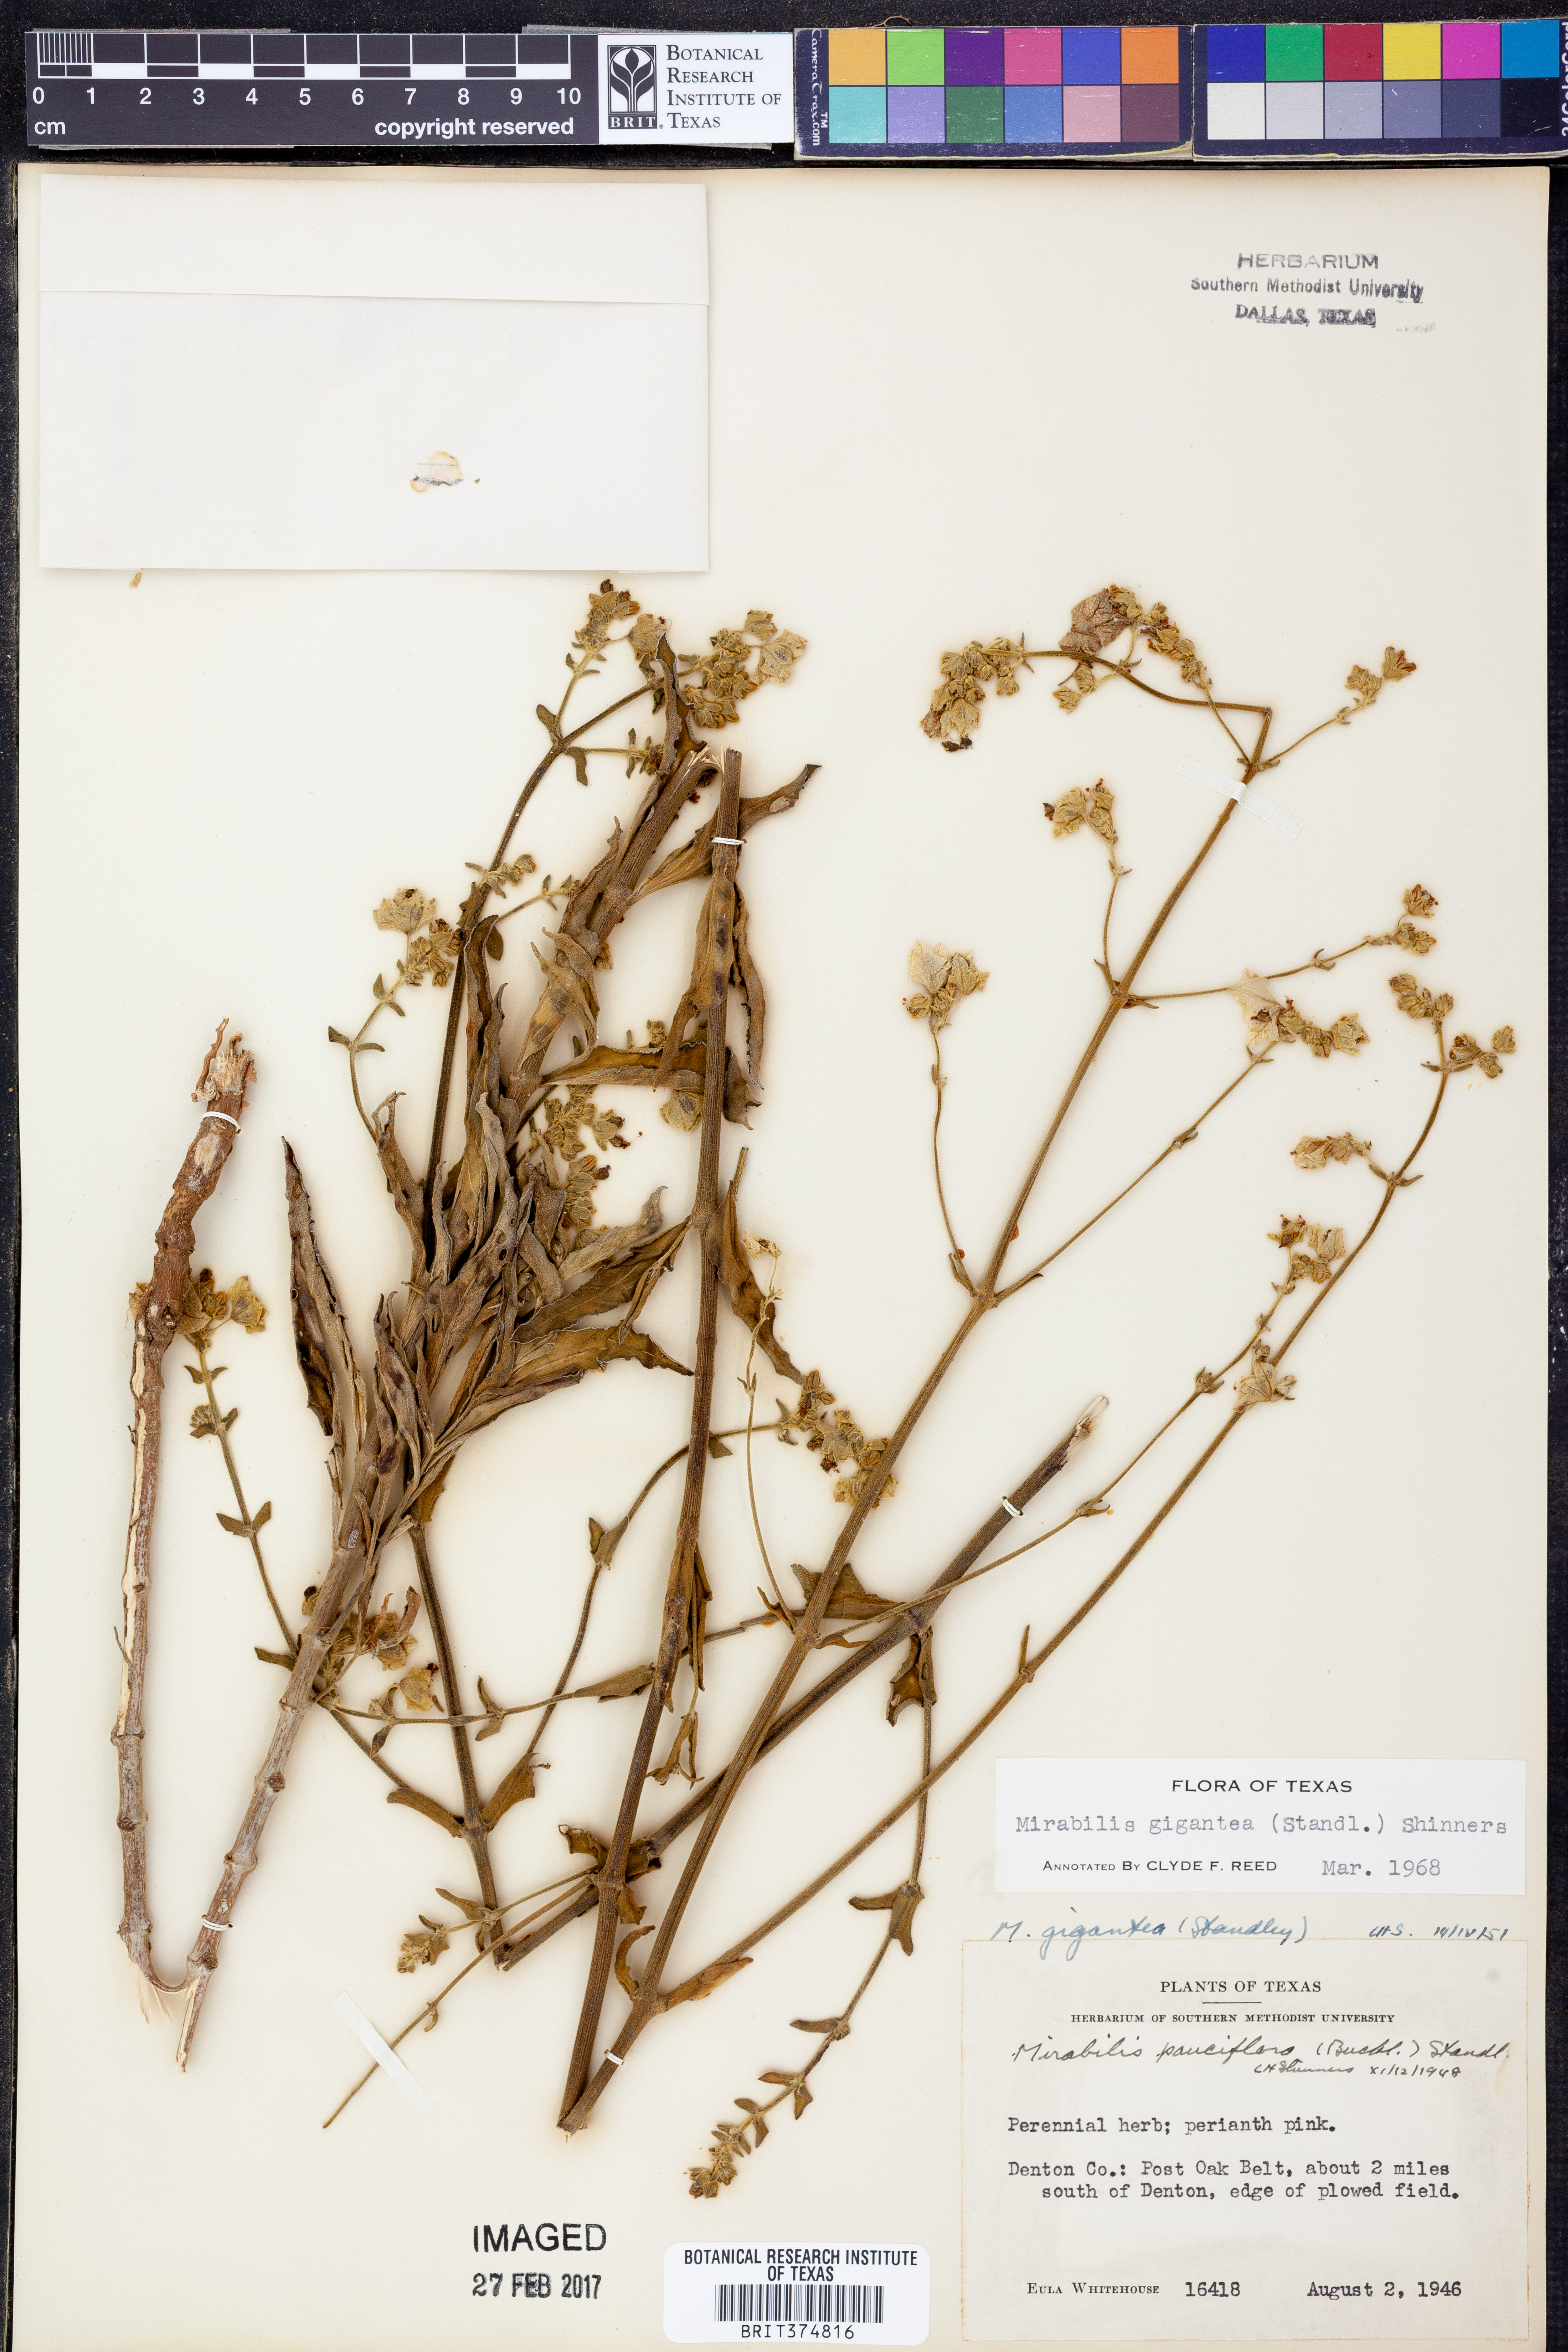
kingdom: Plantae
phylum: Tracheophyta
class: Magnoliopsida
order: Caryophyllales
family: Nyctaginaceae
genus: Mirabilis
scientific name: Mirabilis gigantea
